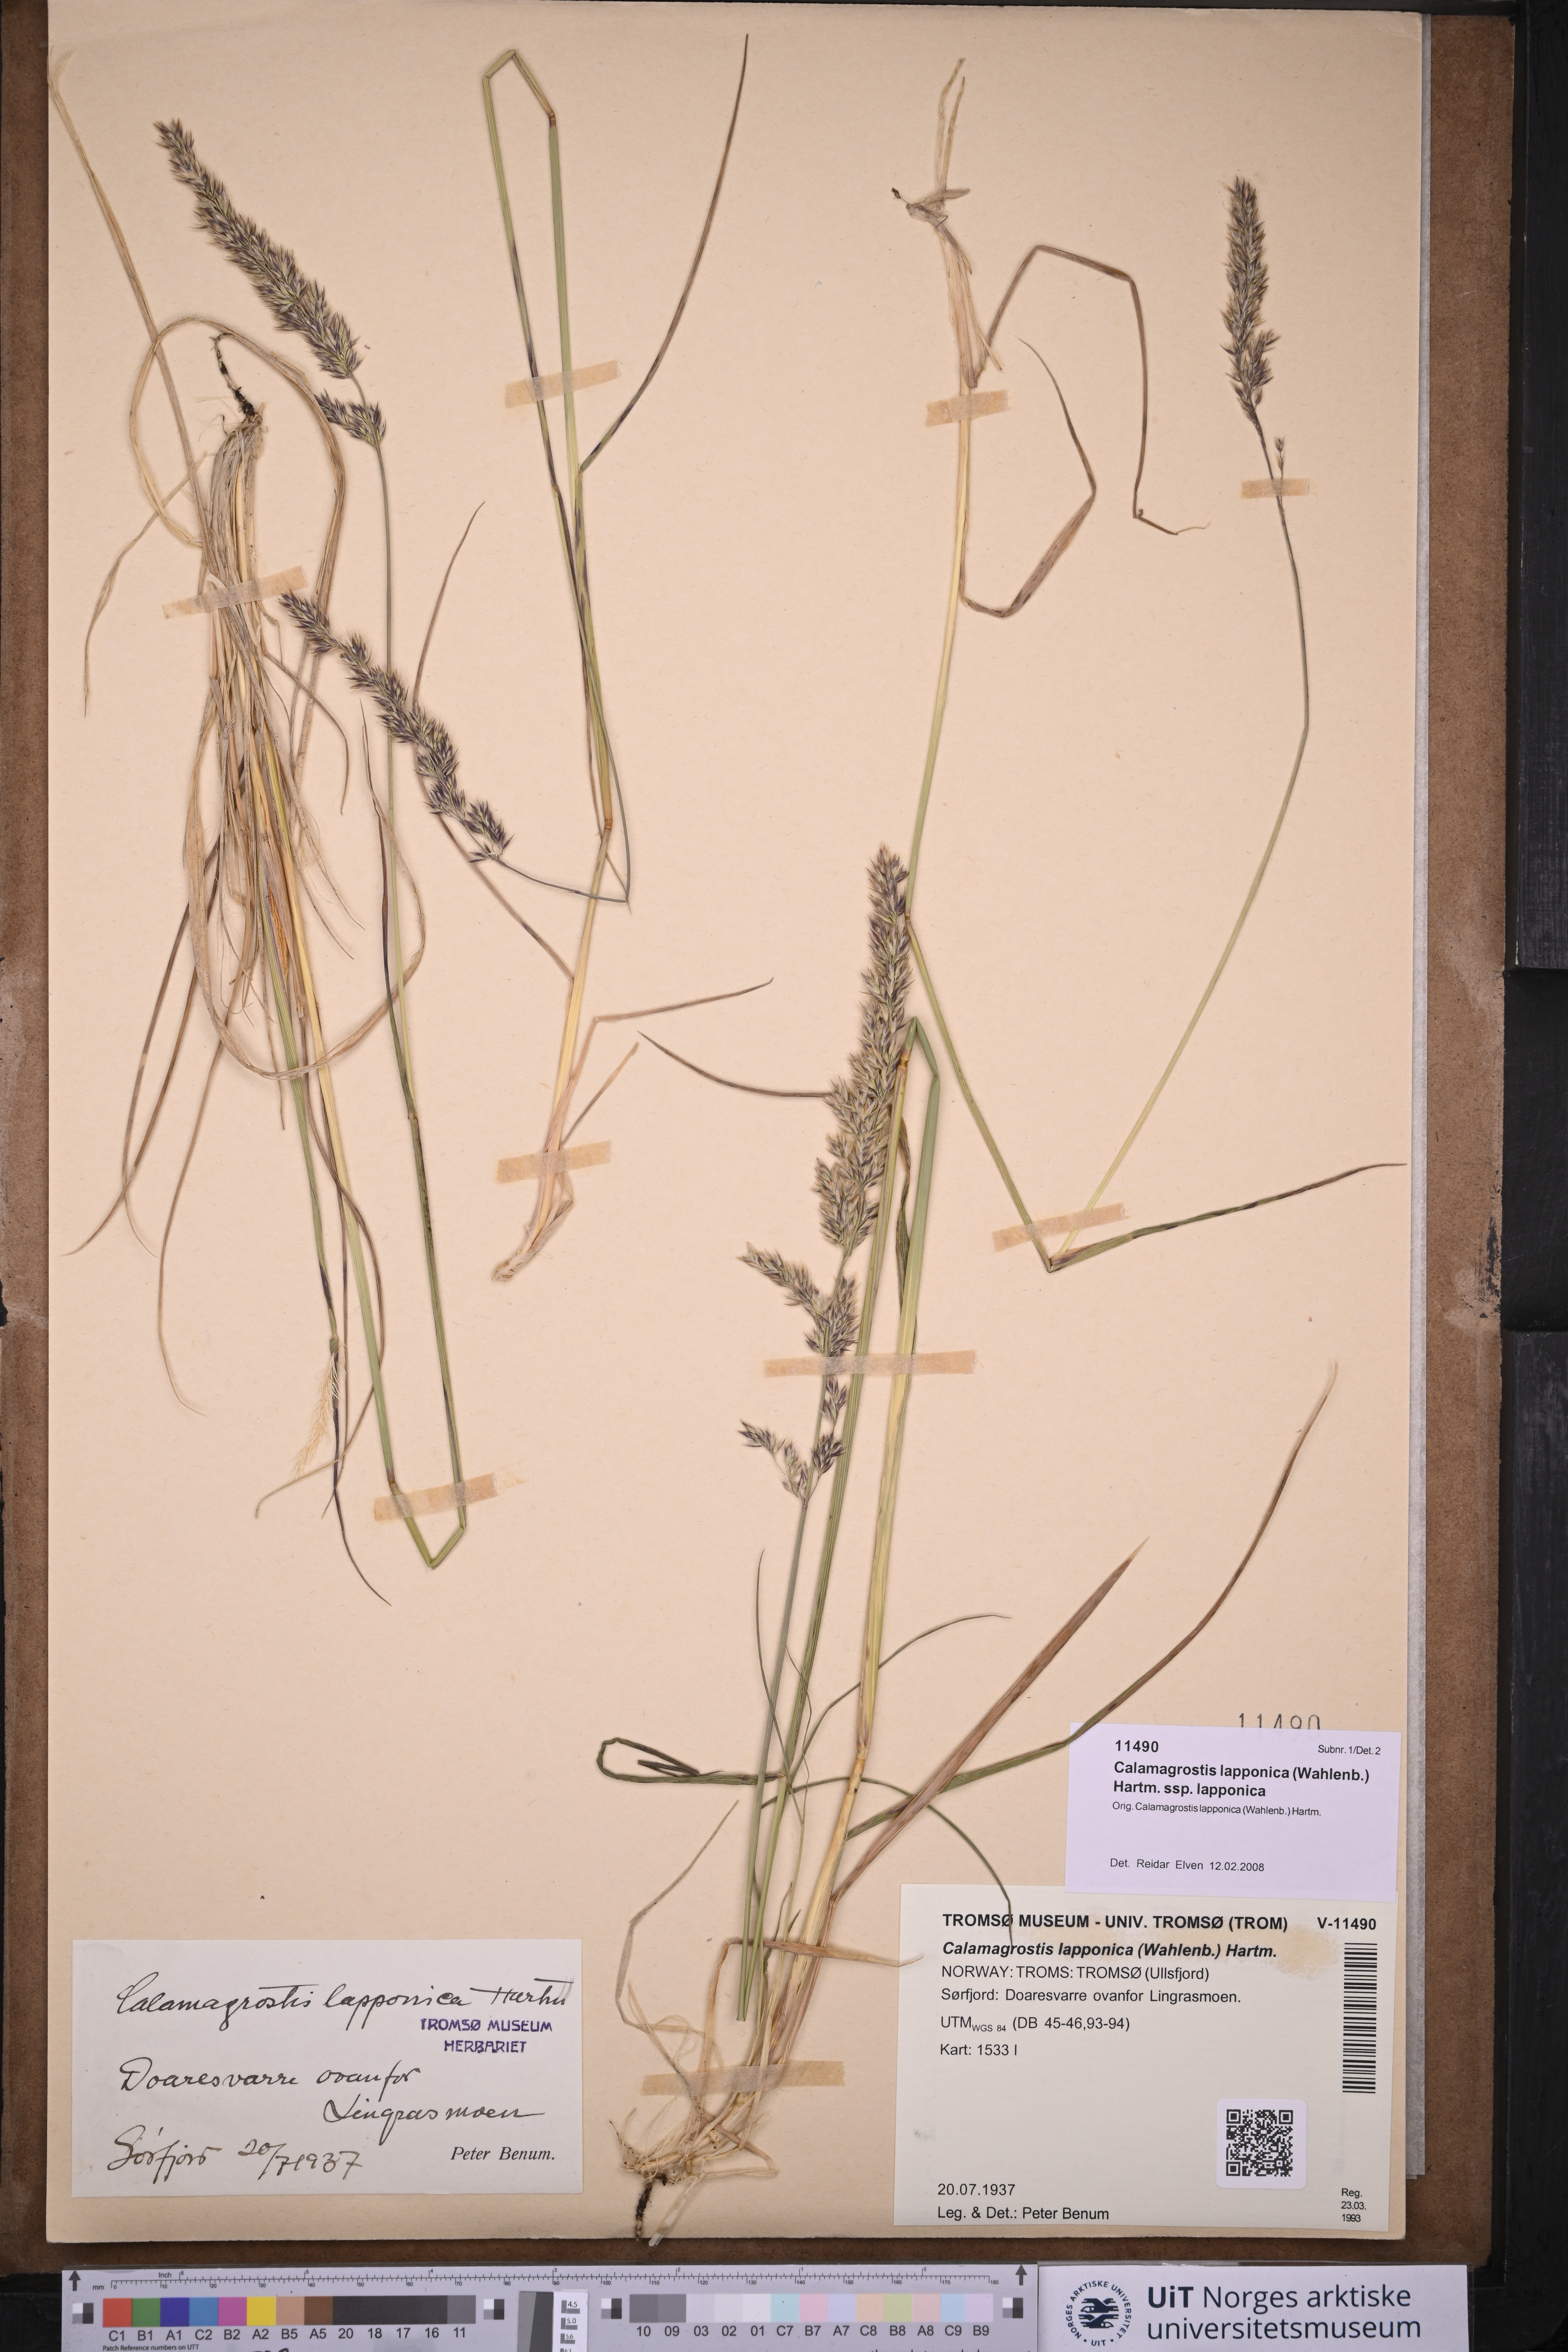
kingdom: Plantae
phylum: Tracheophyta
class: Liliopsida
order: Poales
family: Poaceae
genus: Calamagrostis
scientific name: Calamagrostis lapponica
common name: Lapland reedgrass
